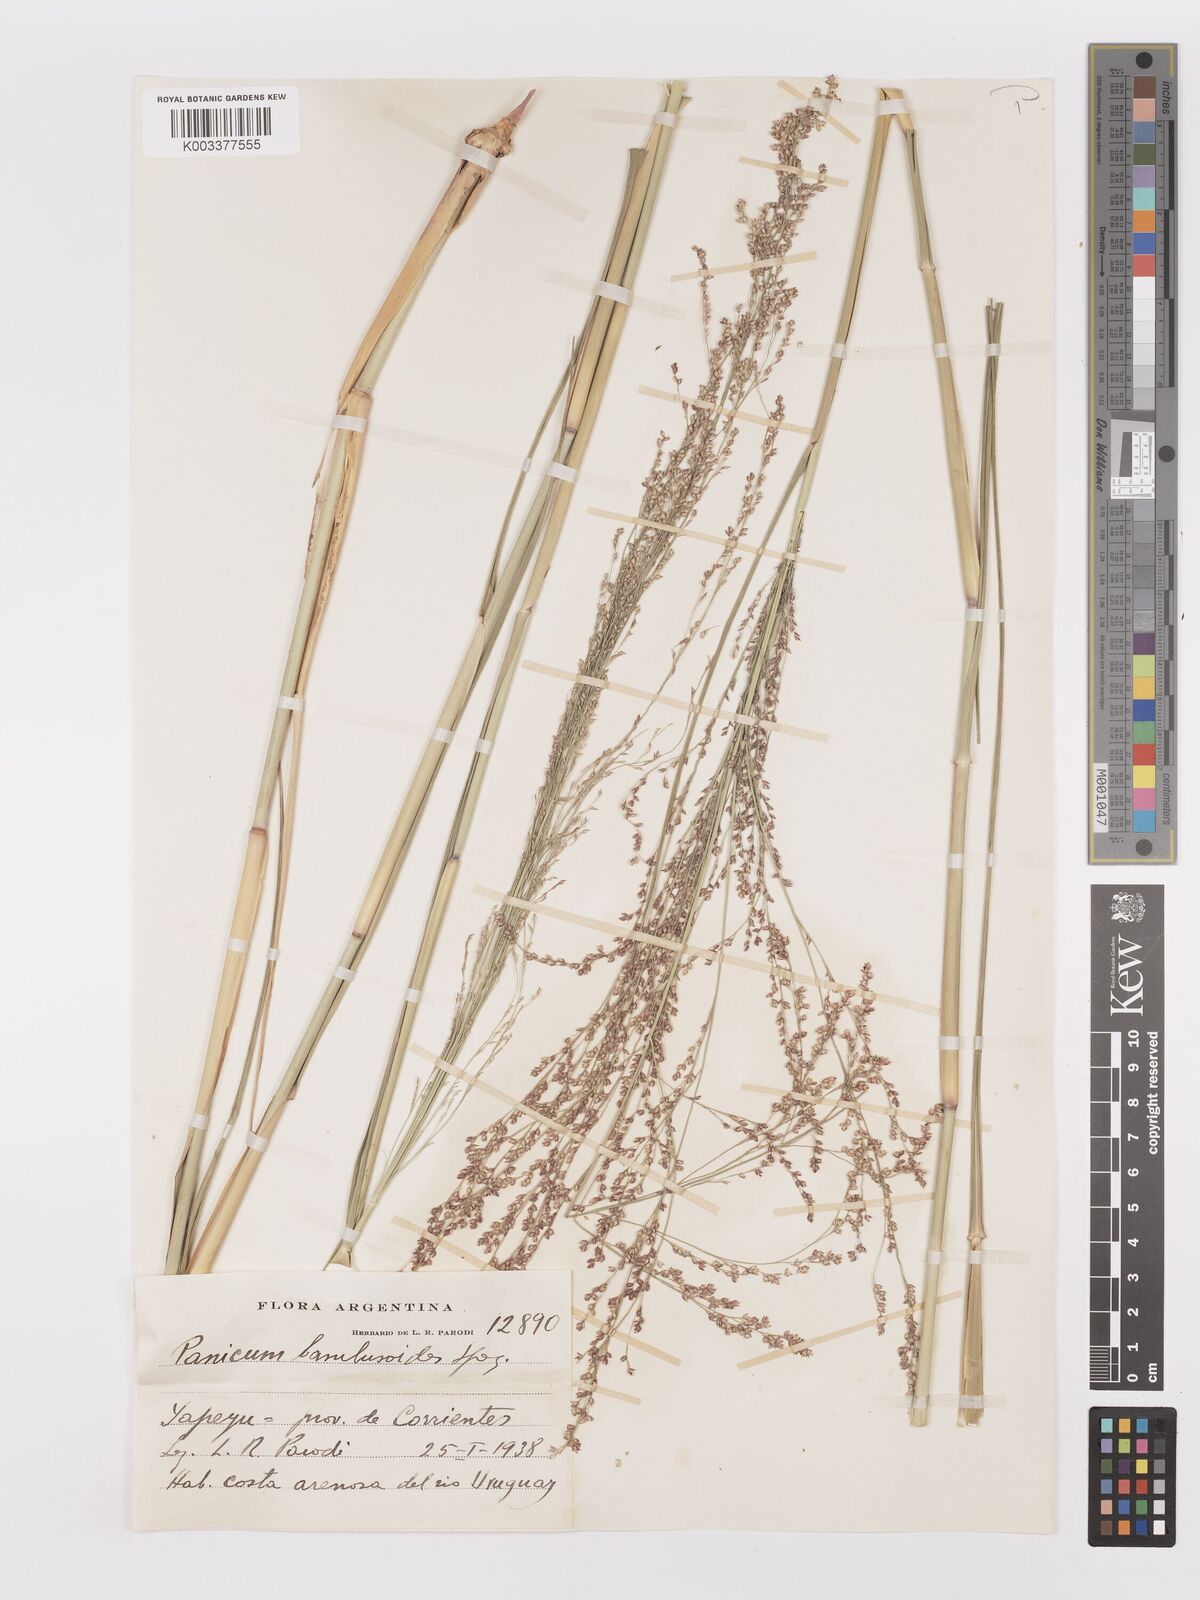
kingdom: Plantae
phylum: Tracheophyta
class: Liliopsida
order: Poales
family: Poaceae
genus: Panicum
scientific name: Panicum tricholaenoides
